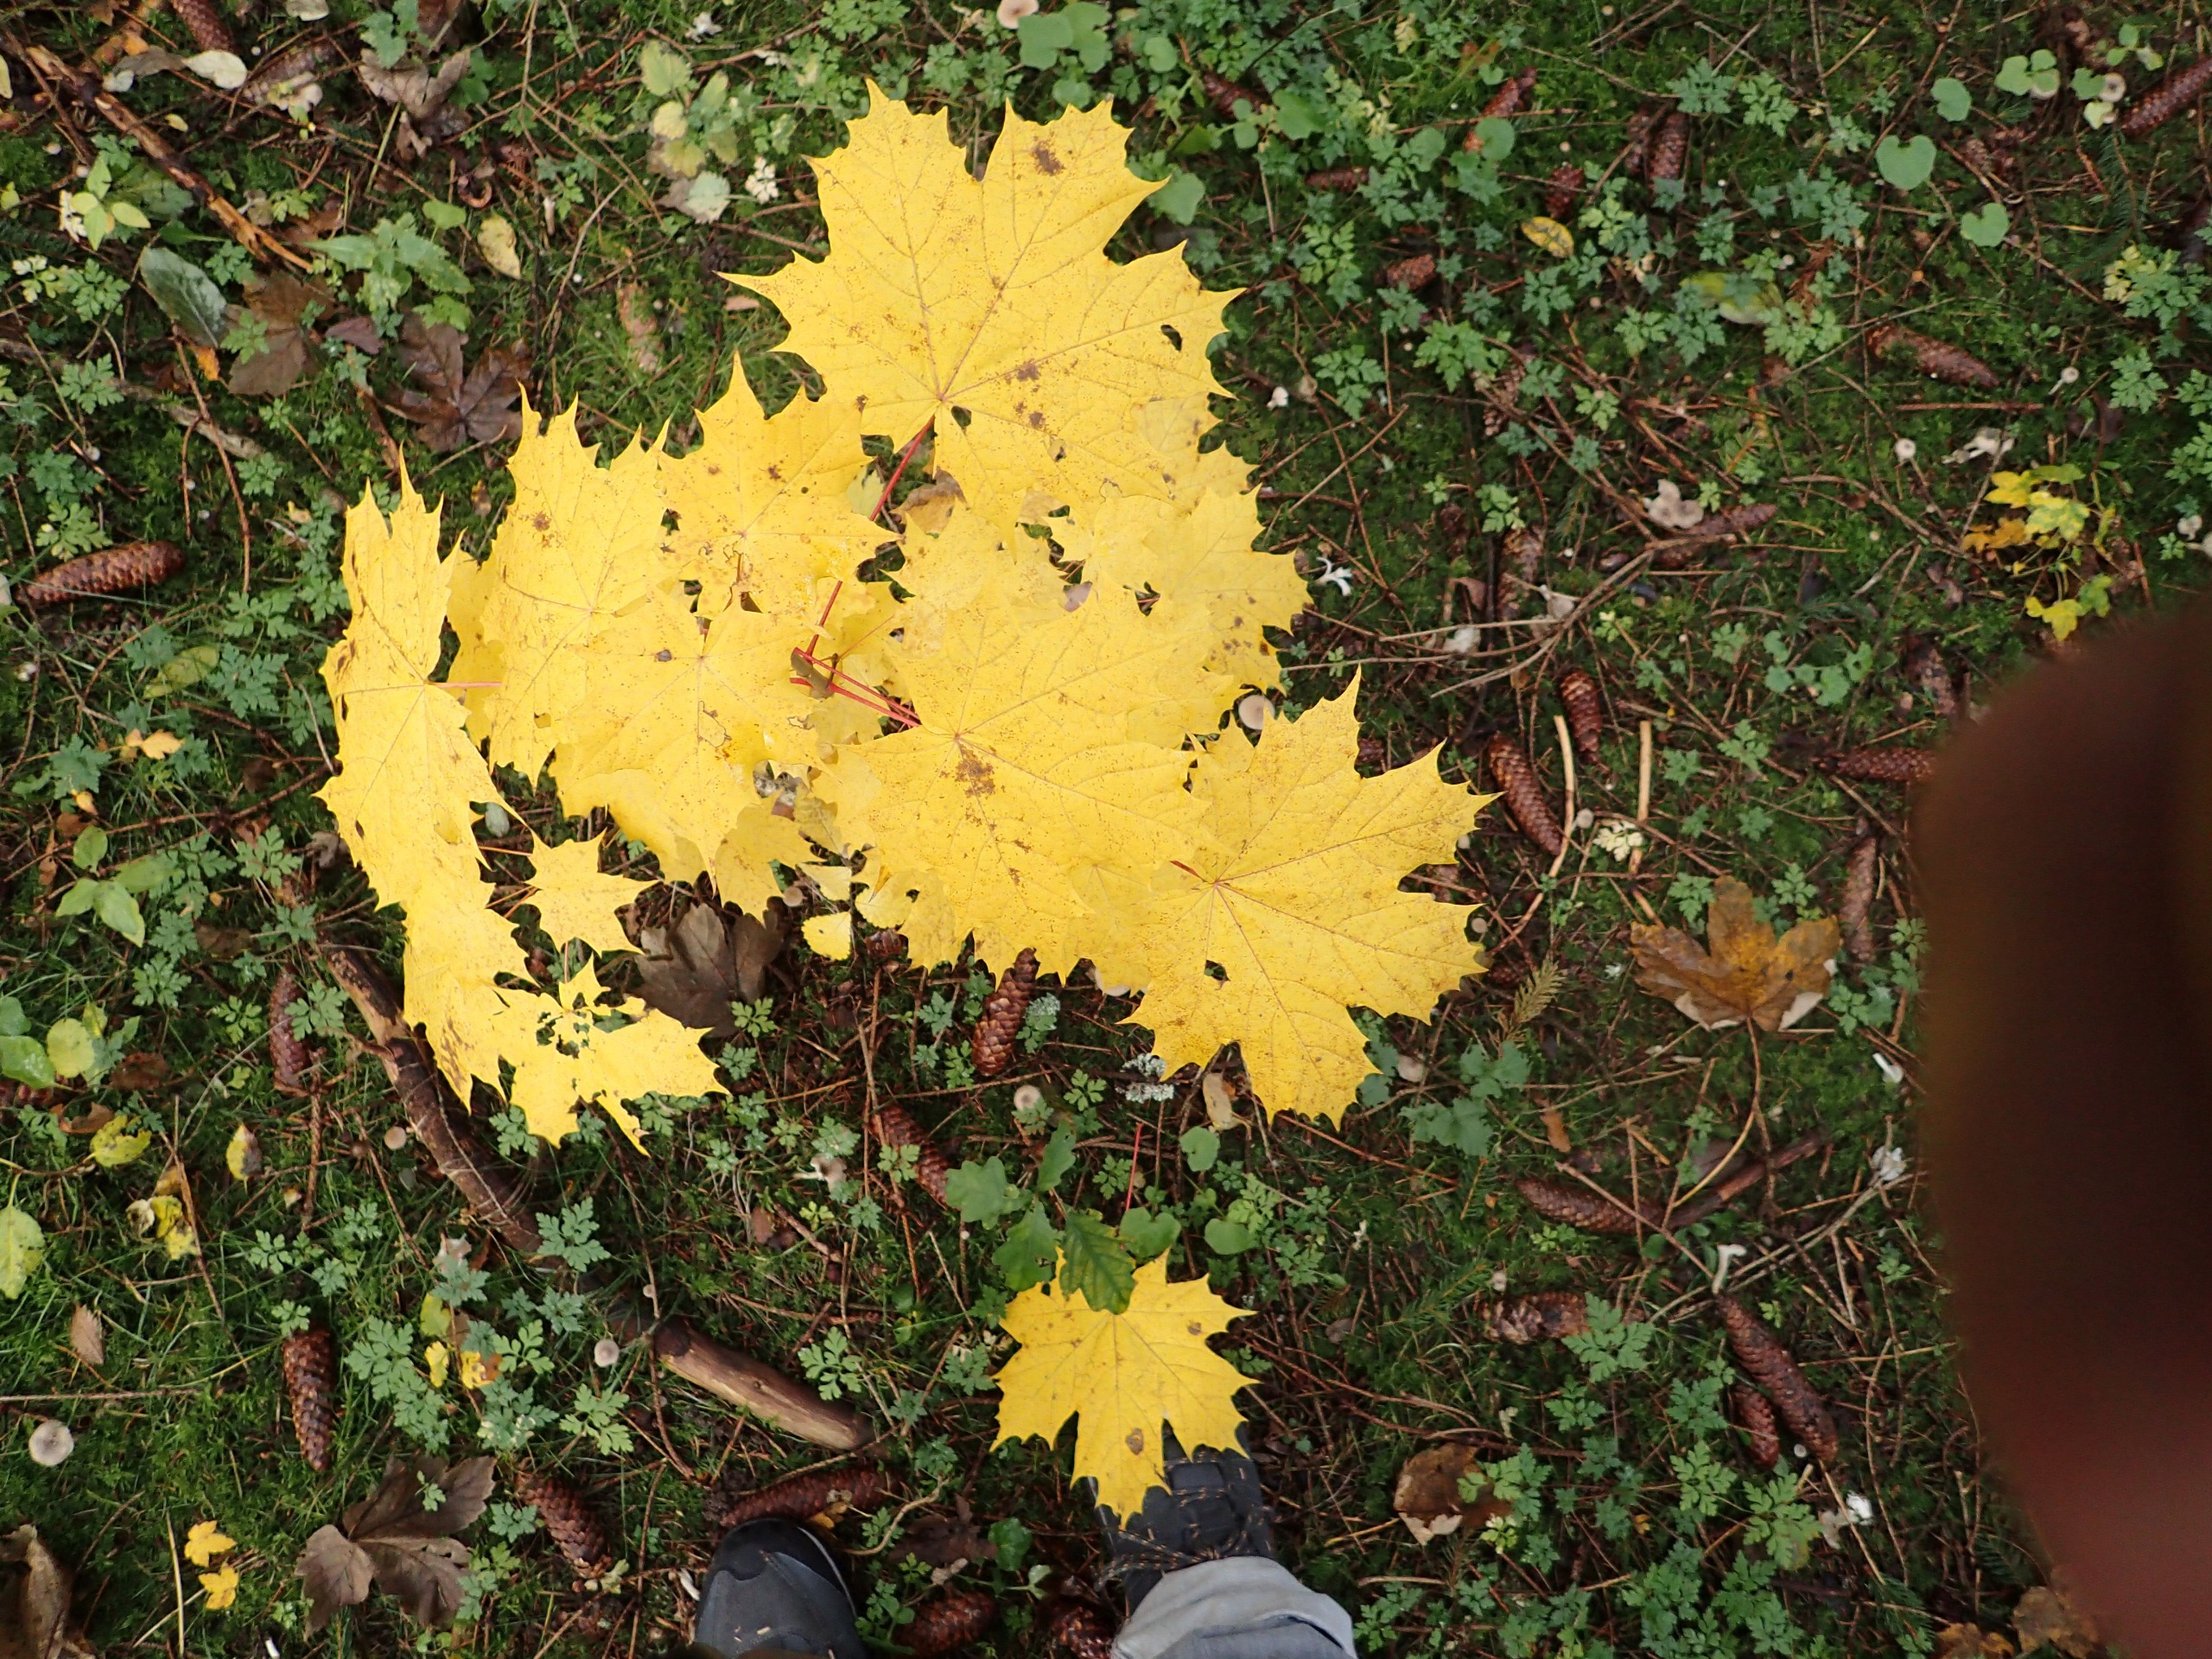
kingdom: Plantae
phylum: Tracheophyta
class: Magnoliopsida
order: Sapindales
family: Sapindaceae
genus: Acer
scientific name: Acer platanoides
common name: Spids-løn
